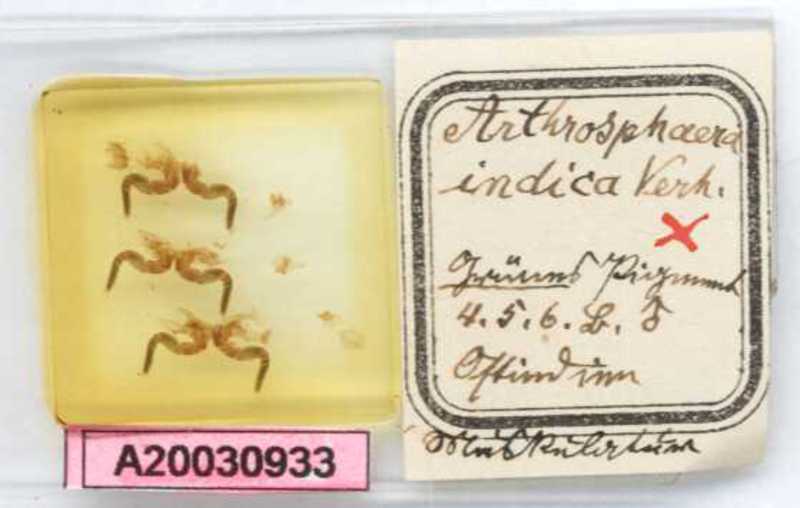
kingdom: Animalia
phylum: Arthropoda
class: Diplopoda
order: Sphaerotheriida
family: Arthrosphaeridae
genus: Arthrosphaera
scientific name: Arthrosphaera indica
